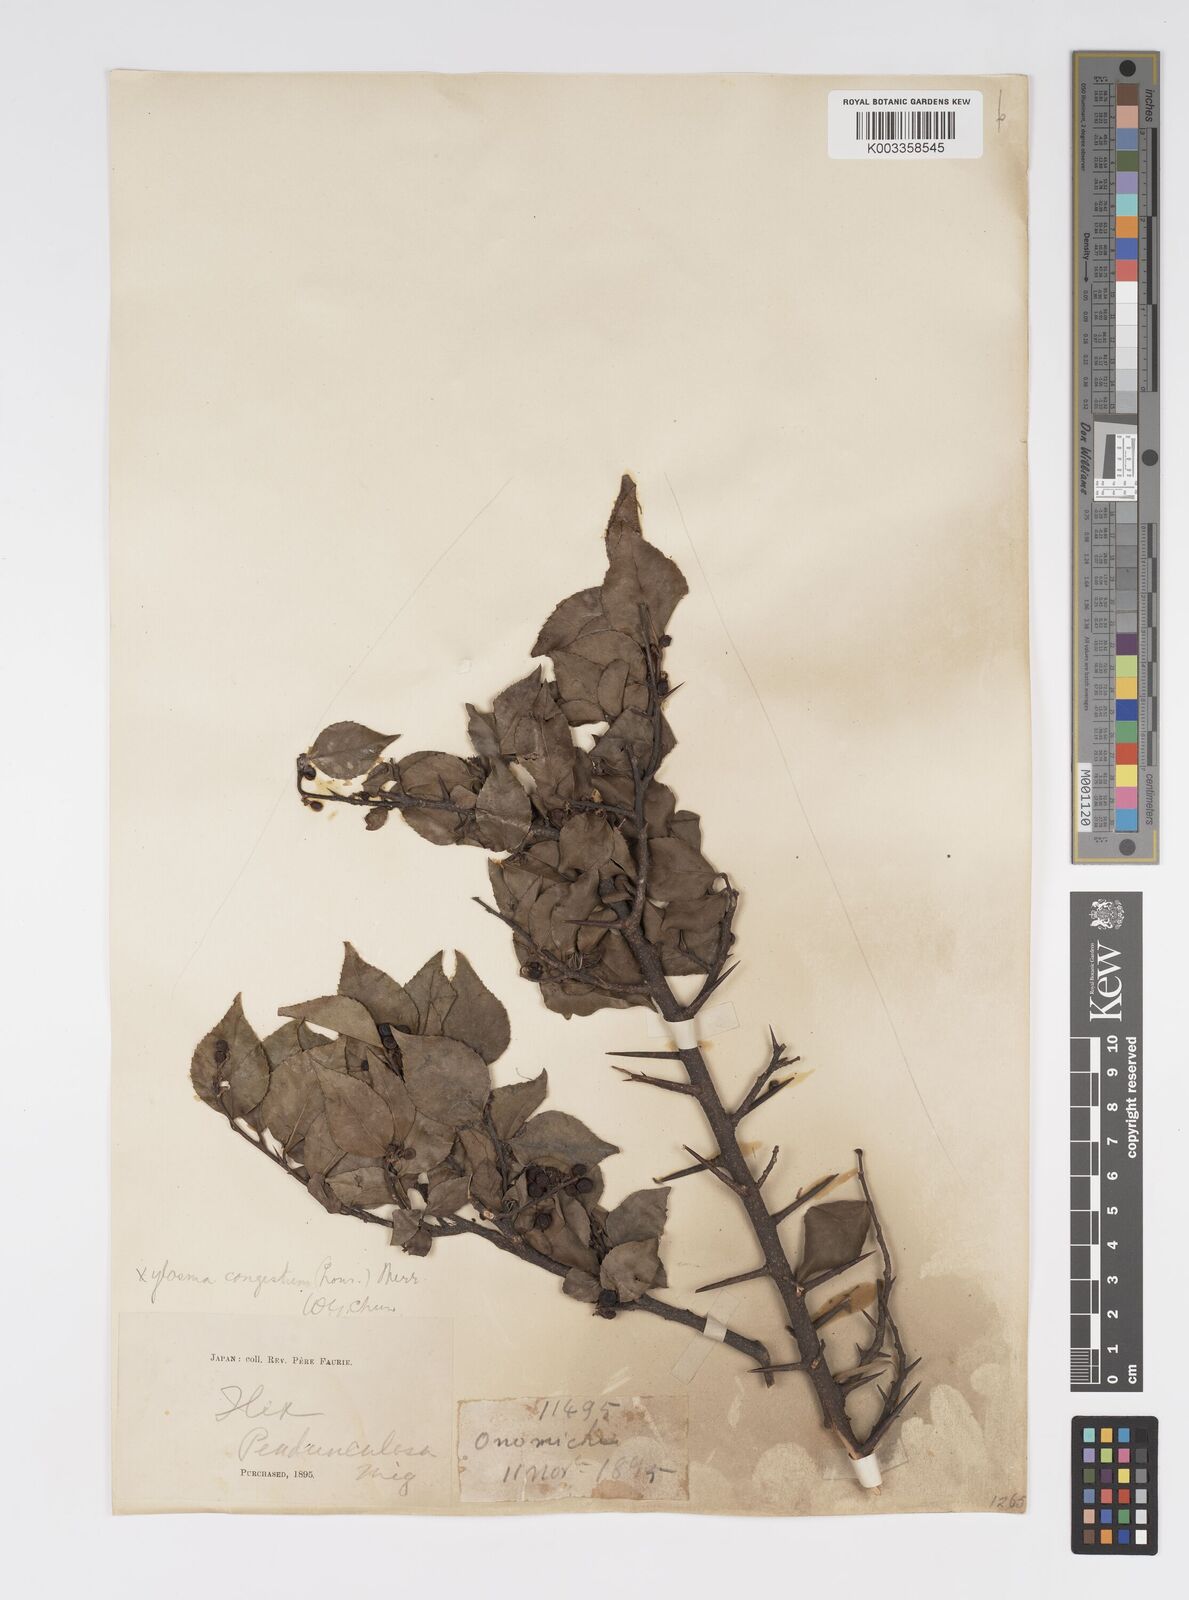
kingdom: Plantae
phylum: Tracheophyta
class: Magnoliopsida
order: Malpighiales
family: Salicaceae
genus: Xylosma
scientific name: Xylosma racemosum
